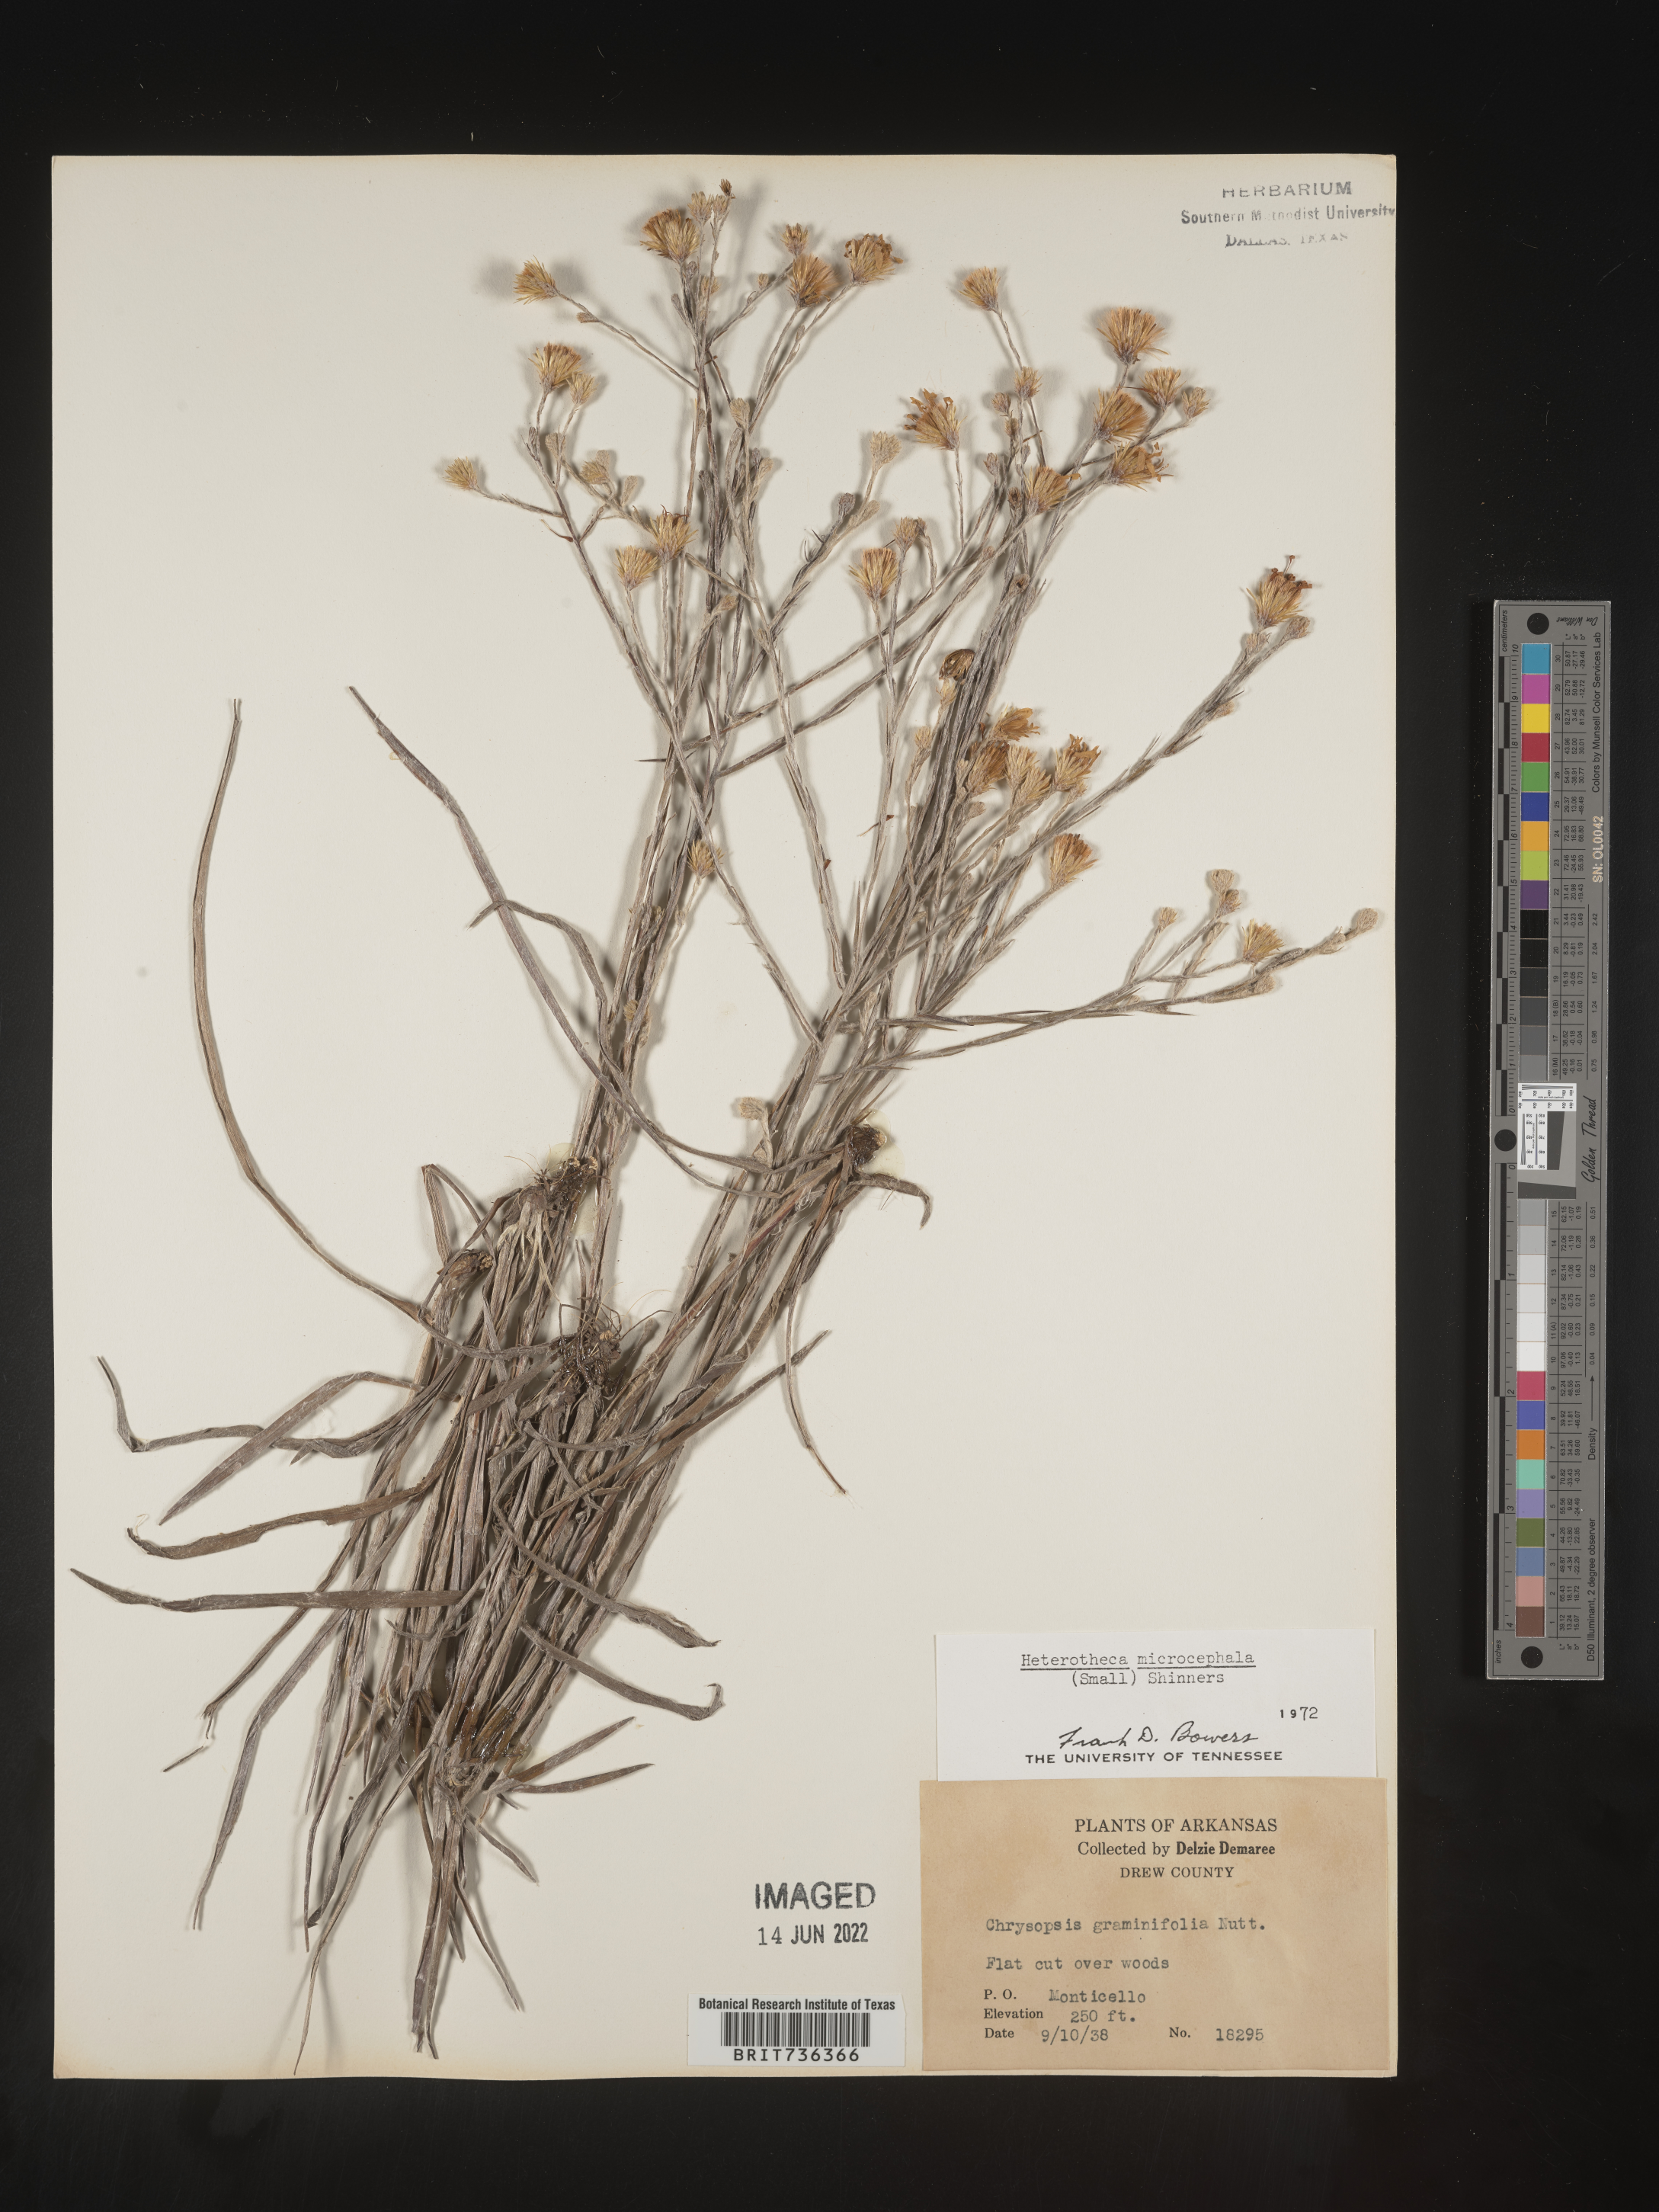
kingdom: Plantae
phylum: Tracheophyta
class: Magnoliopsida
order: Asterales
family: Asteraceae
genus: Pityopsis
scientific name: Pityopsis tenuifolia
